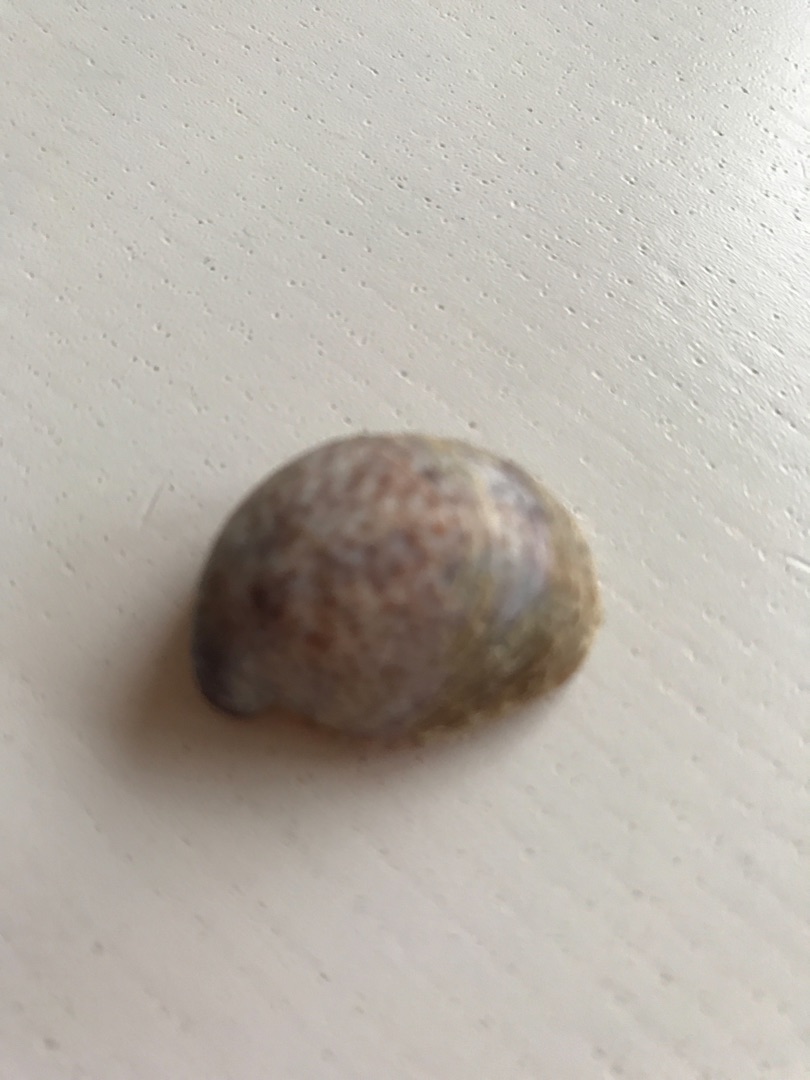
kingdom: Animalia
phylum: Mollusca
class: Gastropoda
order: Littorinimorpha
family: Calyptraeidae
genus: Crepidula
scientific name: Crepidula fornicata
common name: Tøffelsnegl
